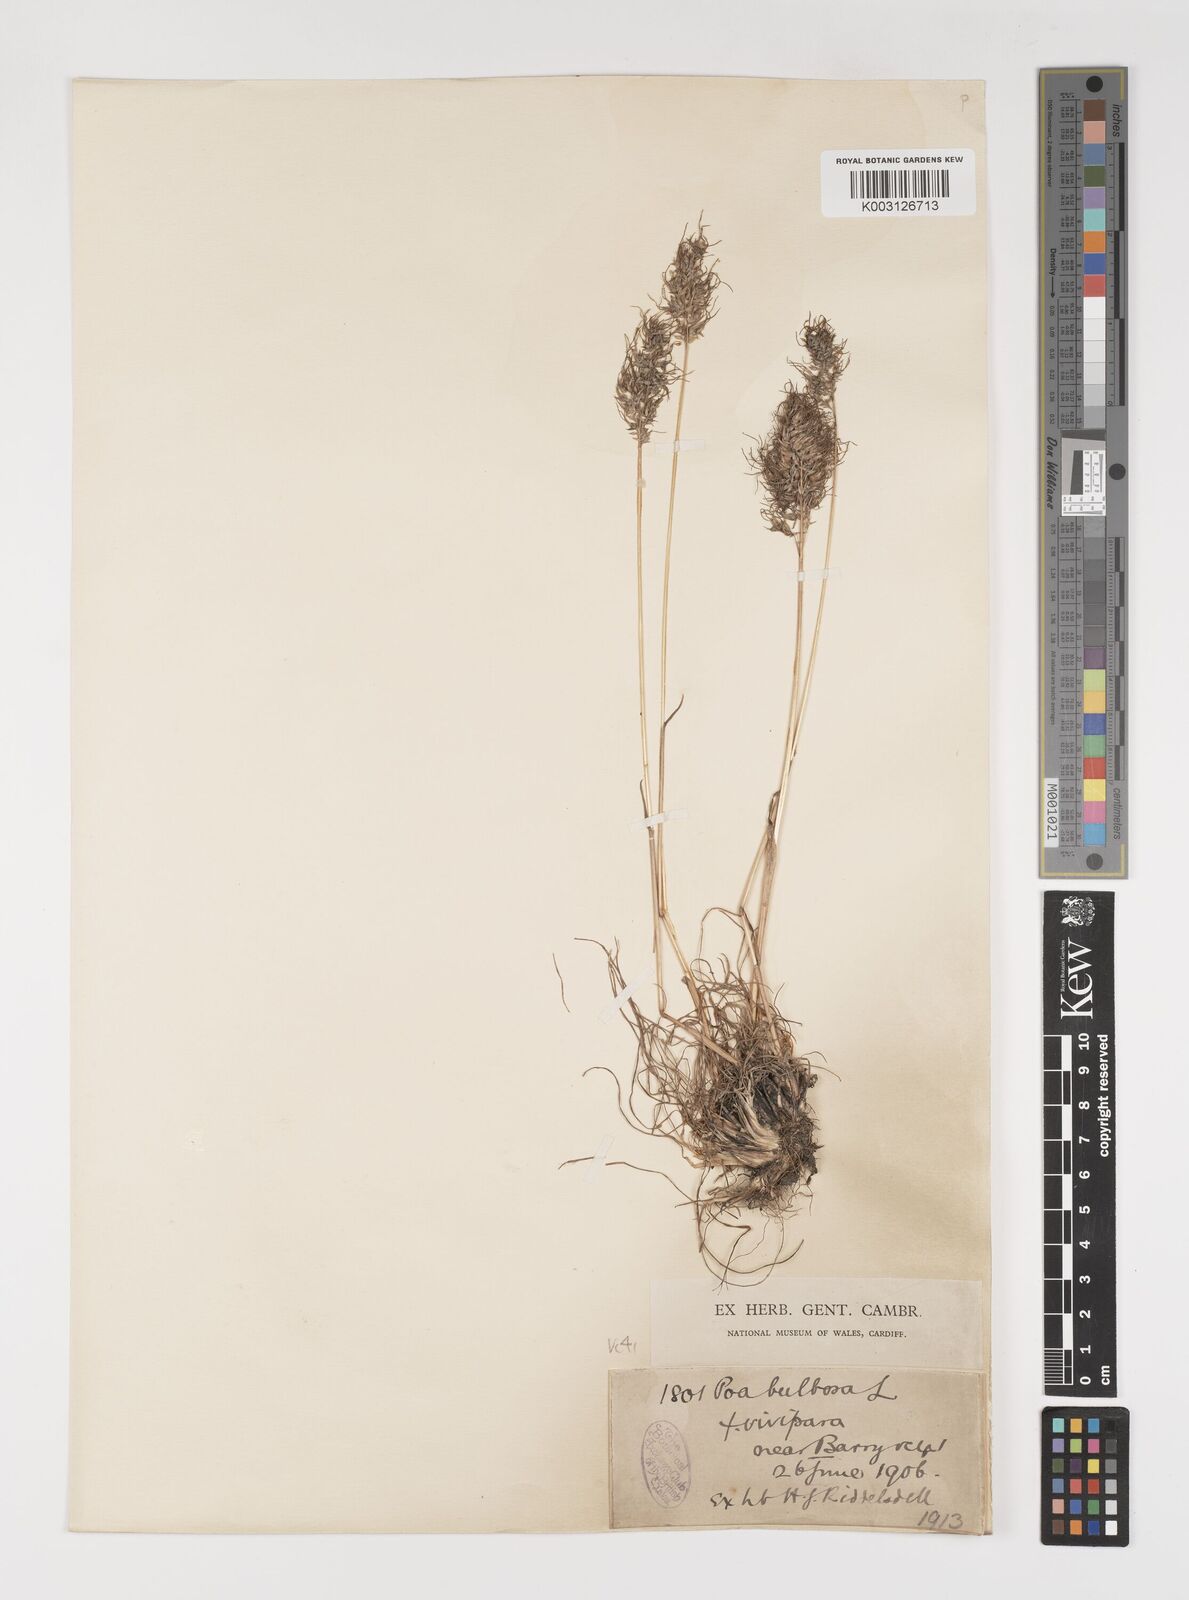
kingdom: Plantae
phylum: Tracheophyta
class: Liliopsida
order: Poales
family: Poaceae
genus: Poa
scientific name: Poa bulbosa
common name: Bulbous bluegrass
